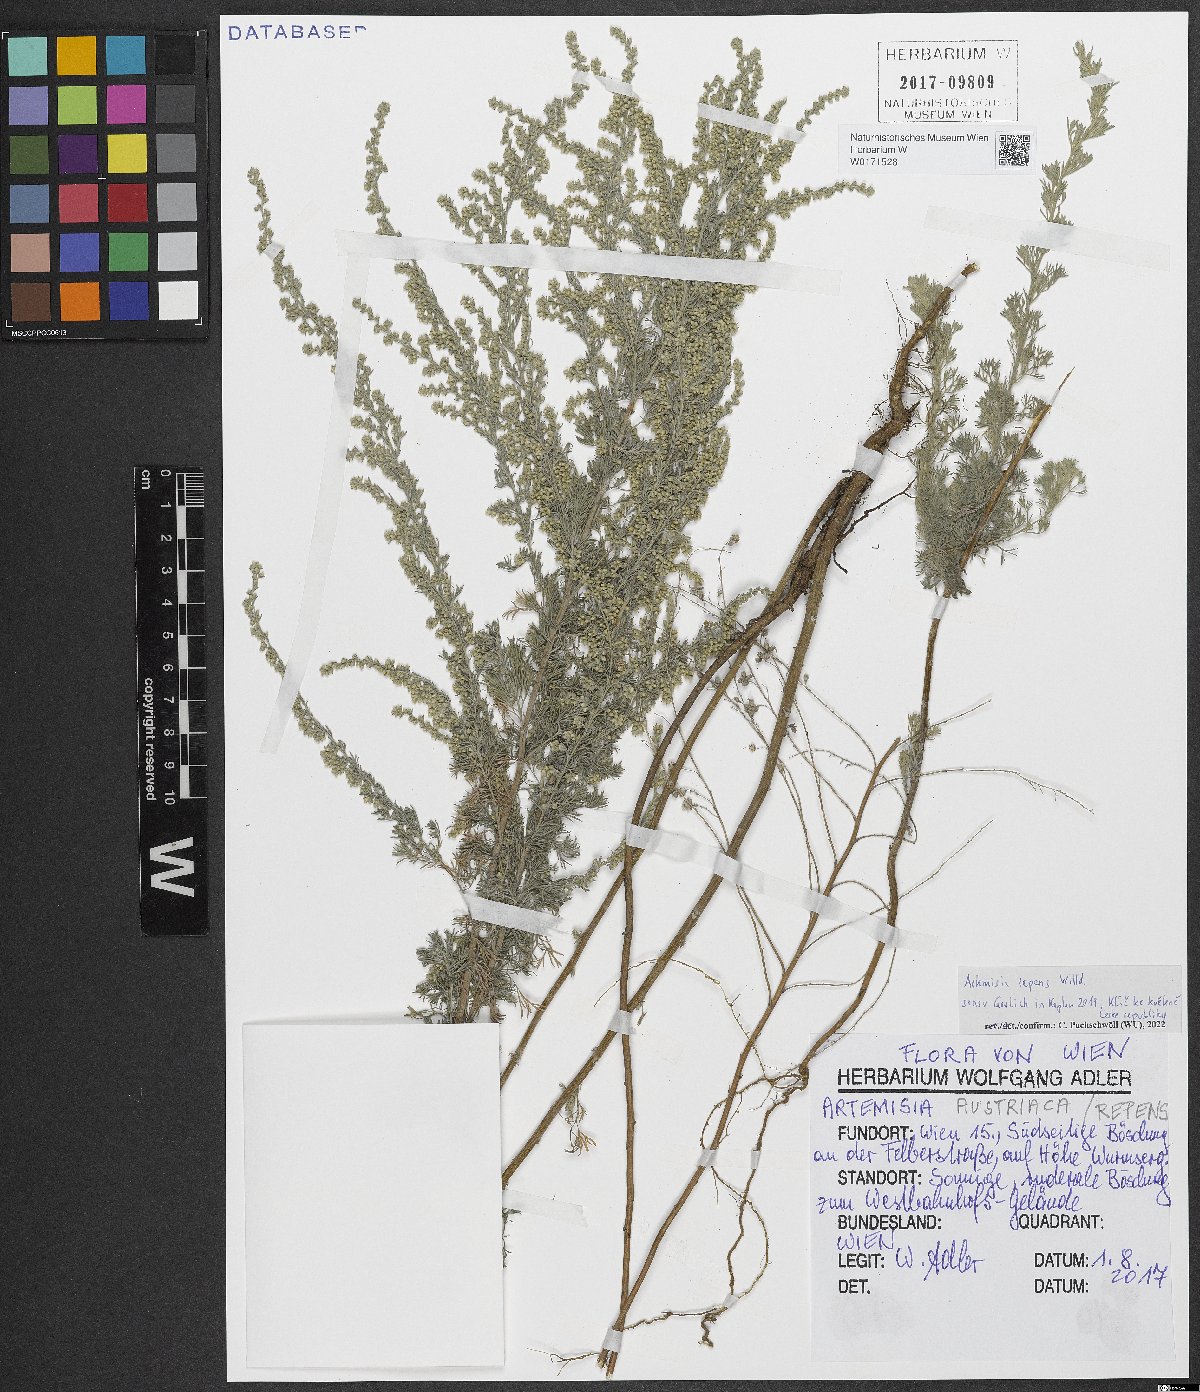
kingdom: Plantae
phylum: Tracheophyta
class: Magnoliopsida
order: Asterales
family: Asteraceae
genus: Artemisia
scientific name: Artemisia repens
